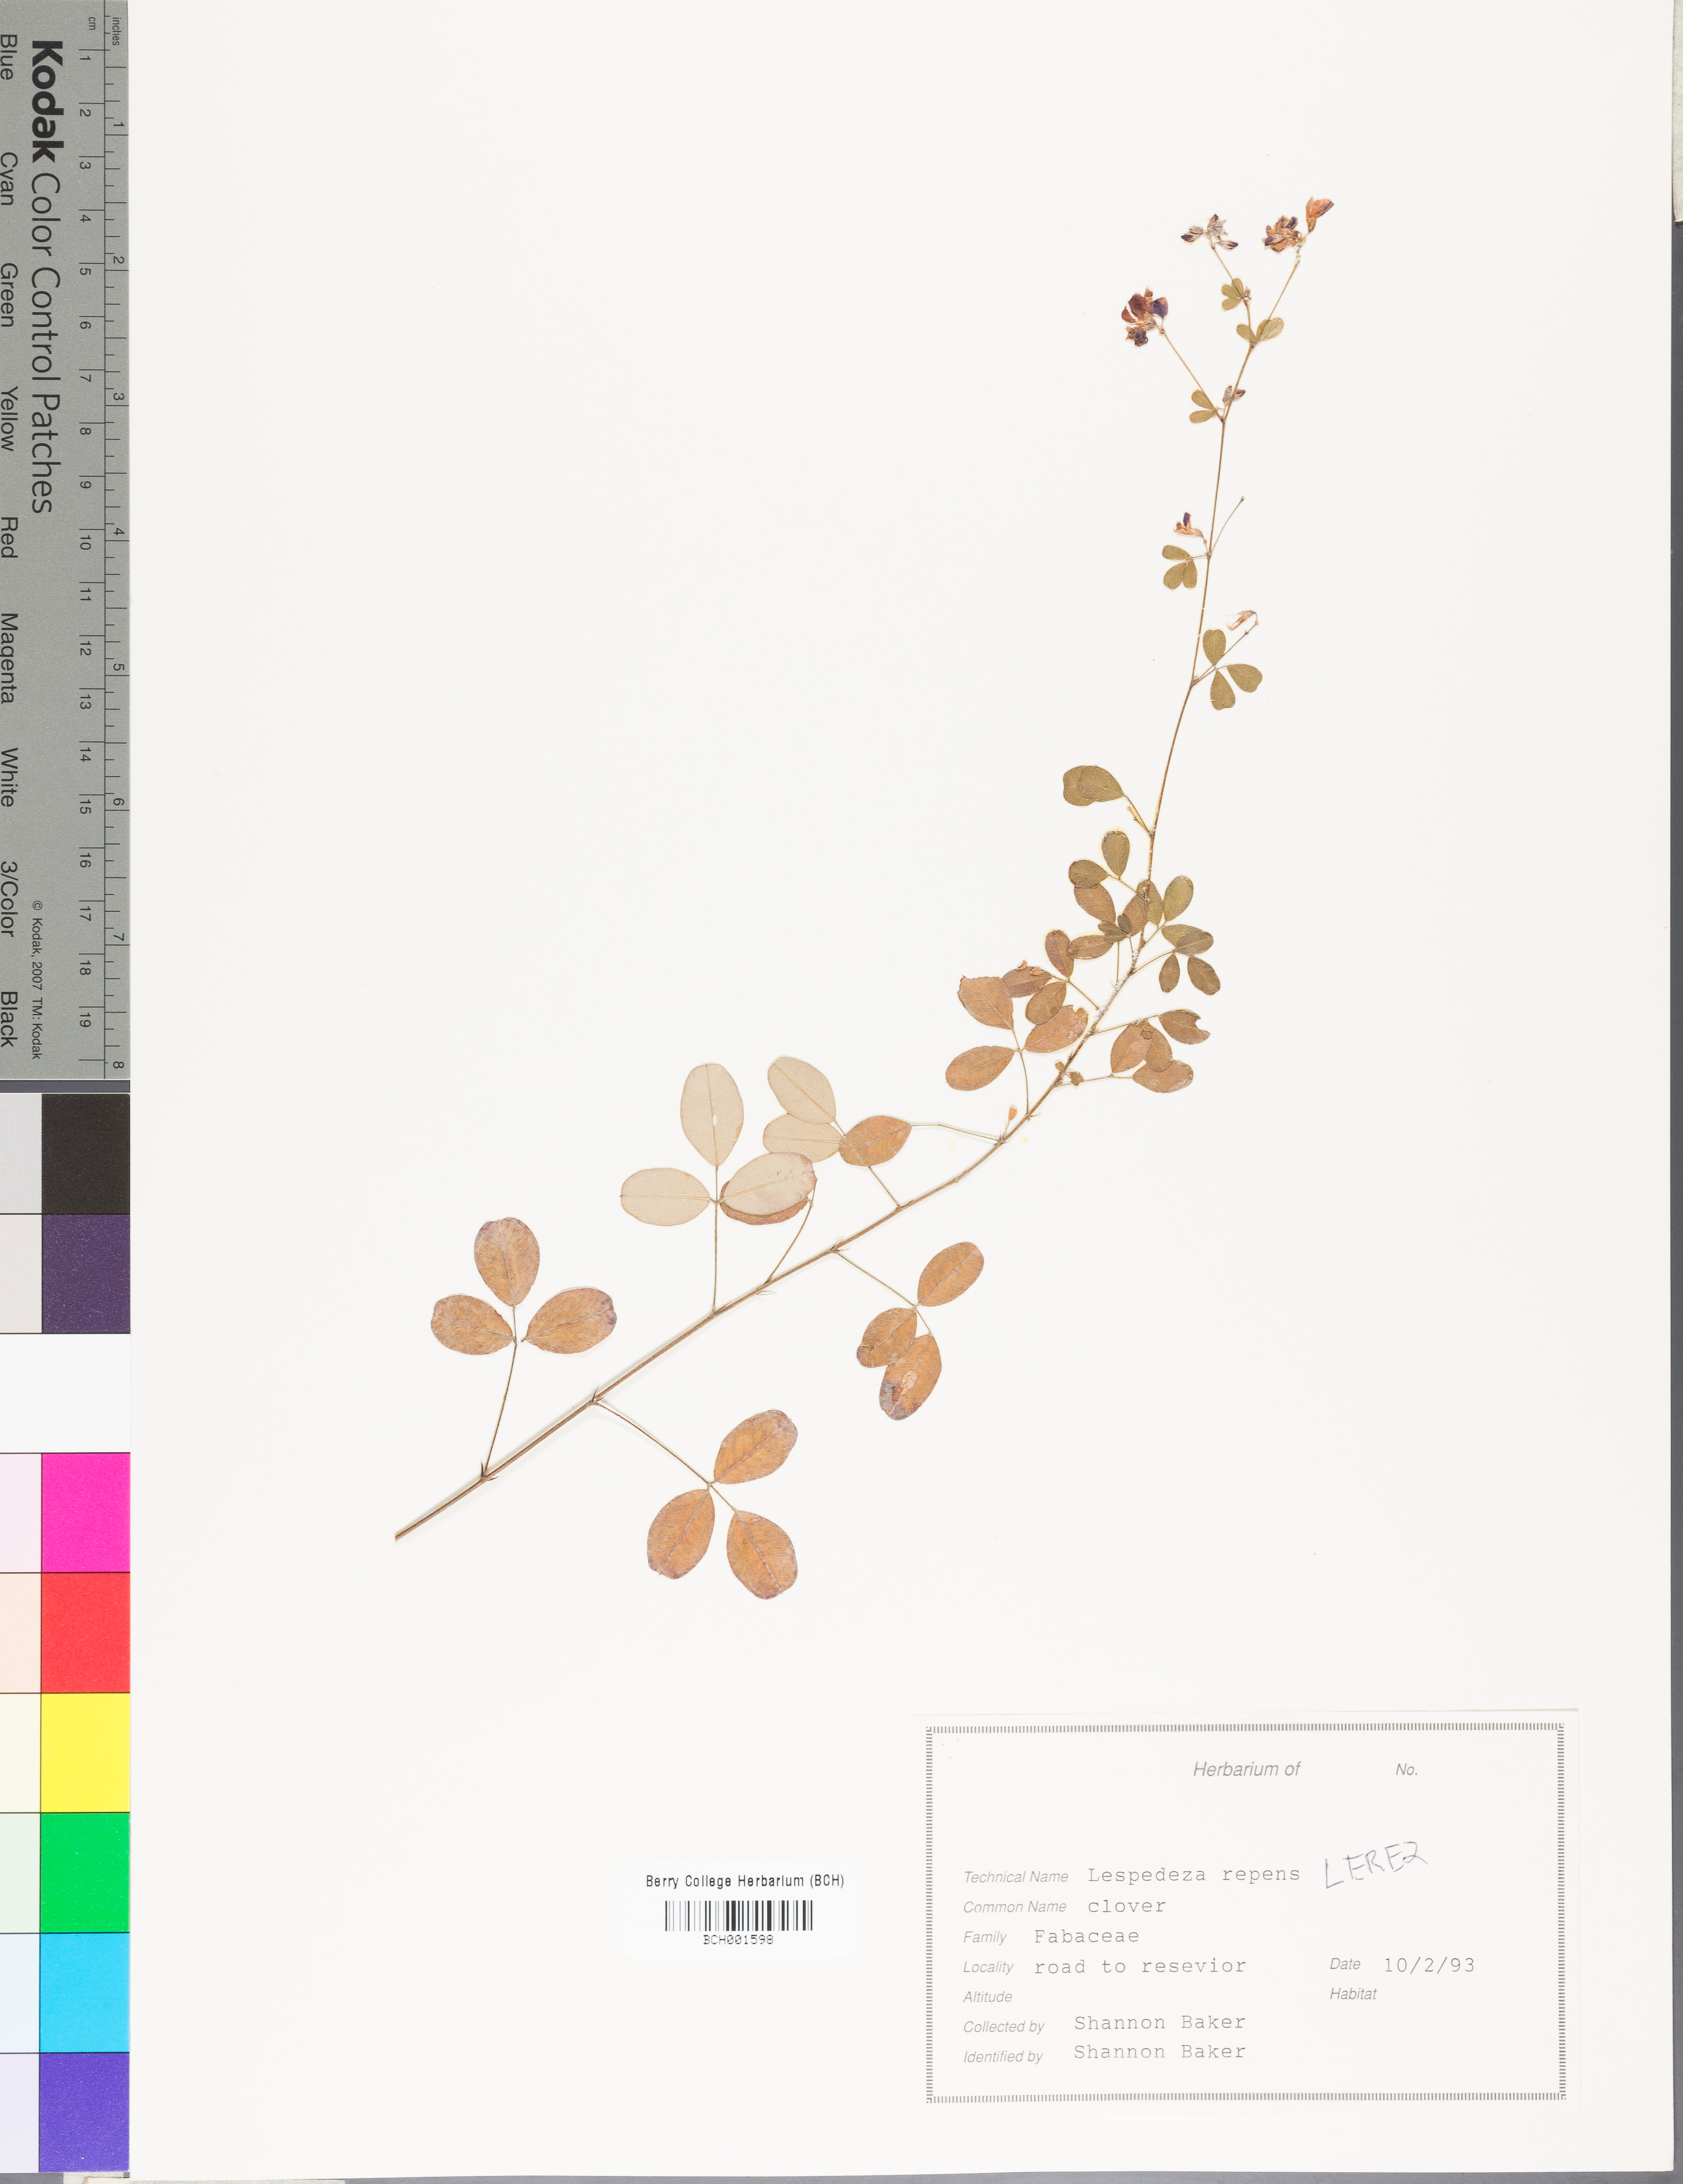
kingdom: Plantae
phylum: Tracheophyta
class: Magnoliopsida
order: Fabales
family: Fabaceae
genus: Lespedeza
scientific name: Lespedeza repens
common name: Creeping bush-clover
